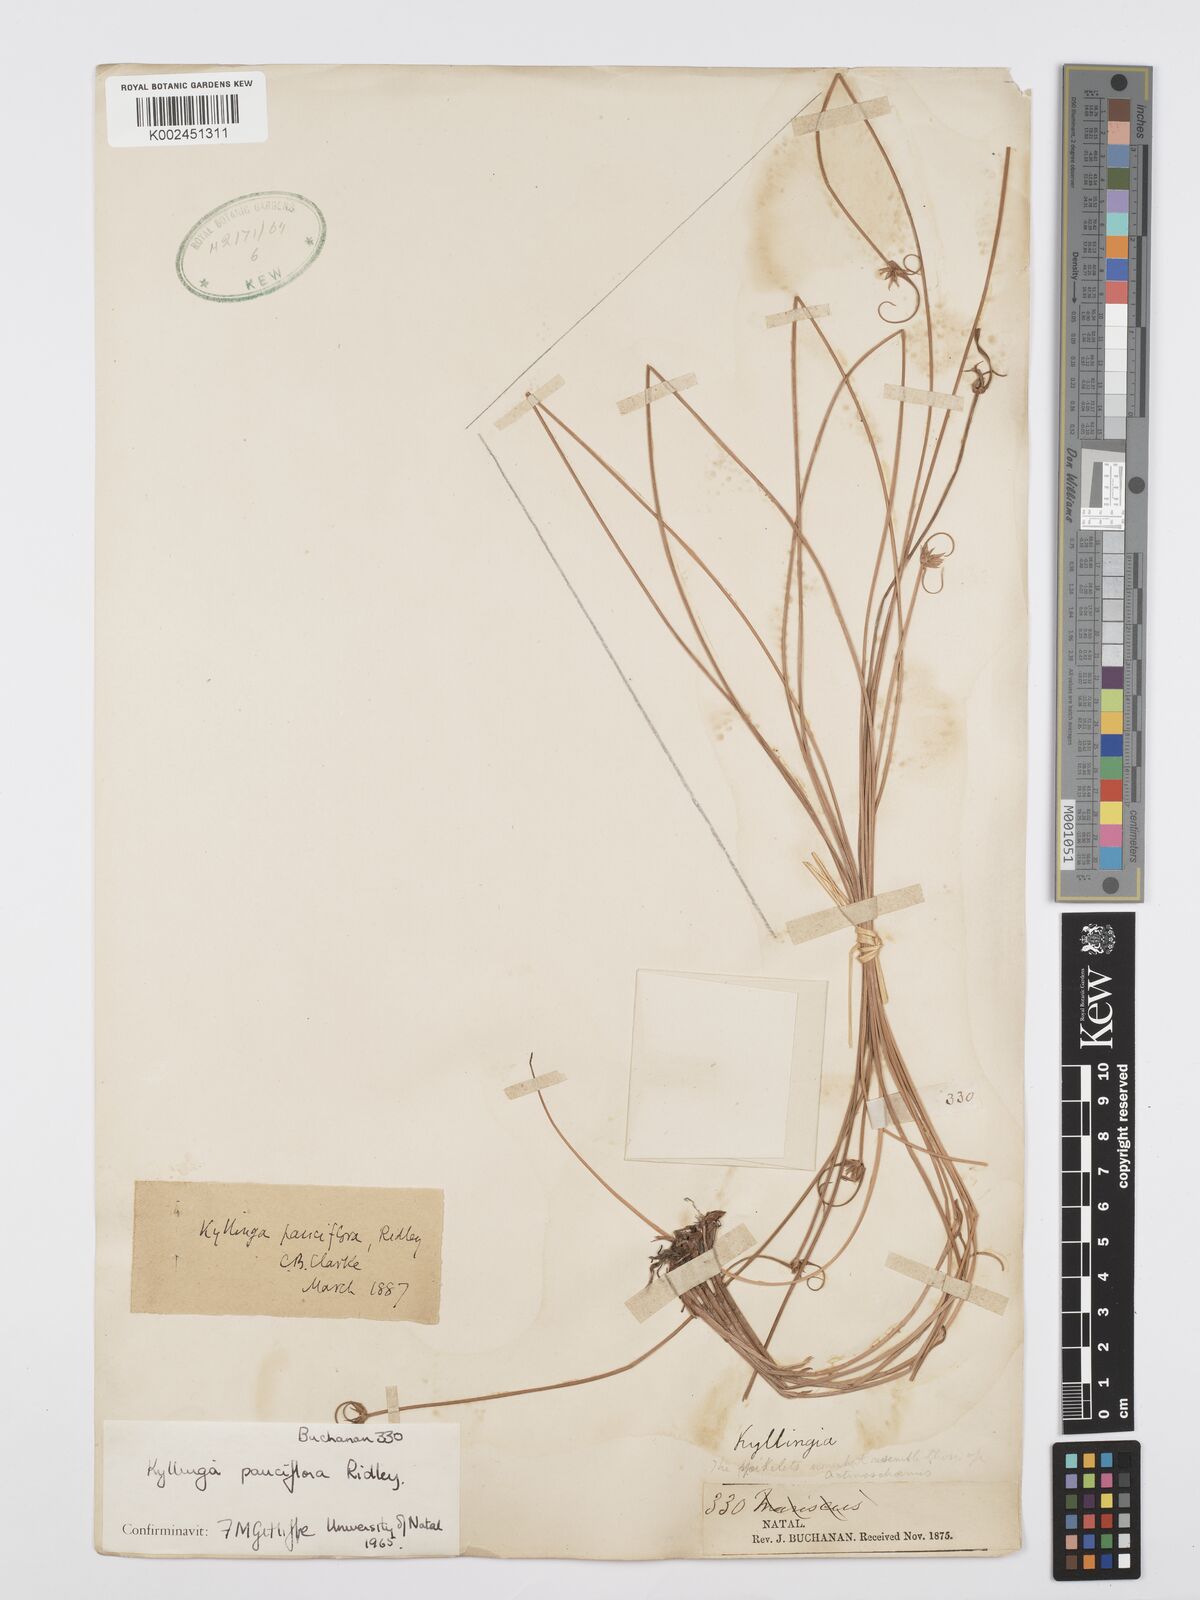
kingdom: Plantae
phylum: Tracheophyta
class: Liliopsida
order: Poales
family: Cyperaceae
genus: Cyperus
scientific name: Cyperus
